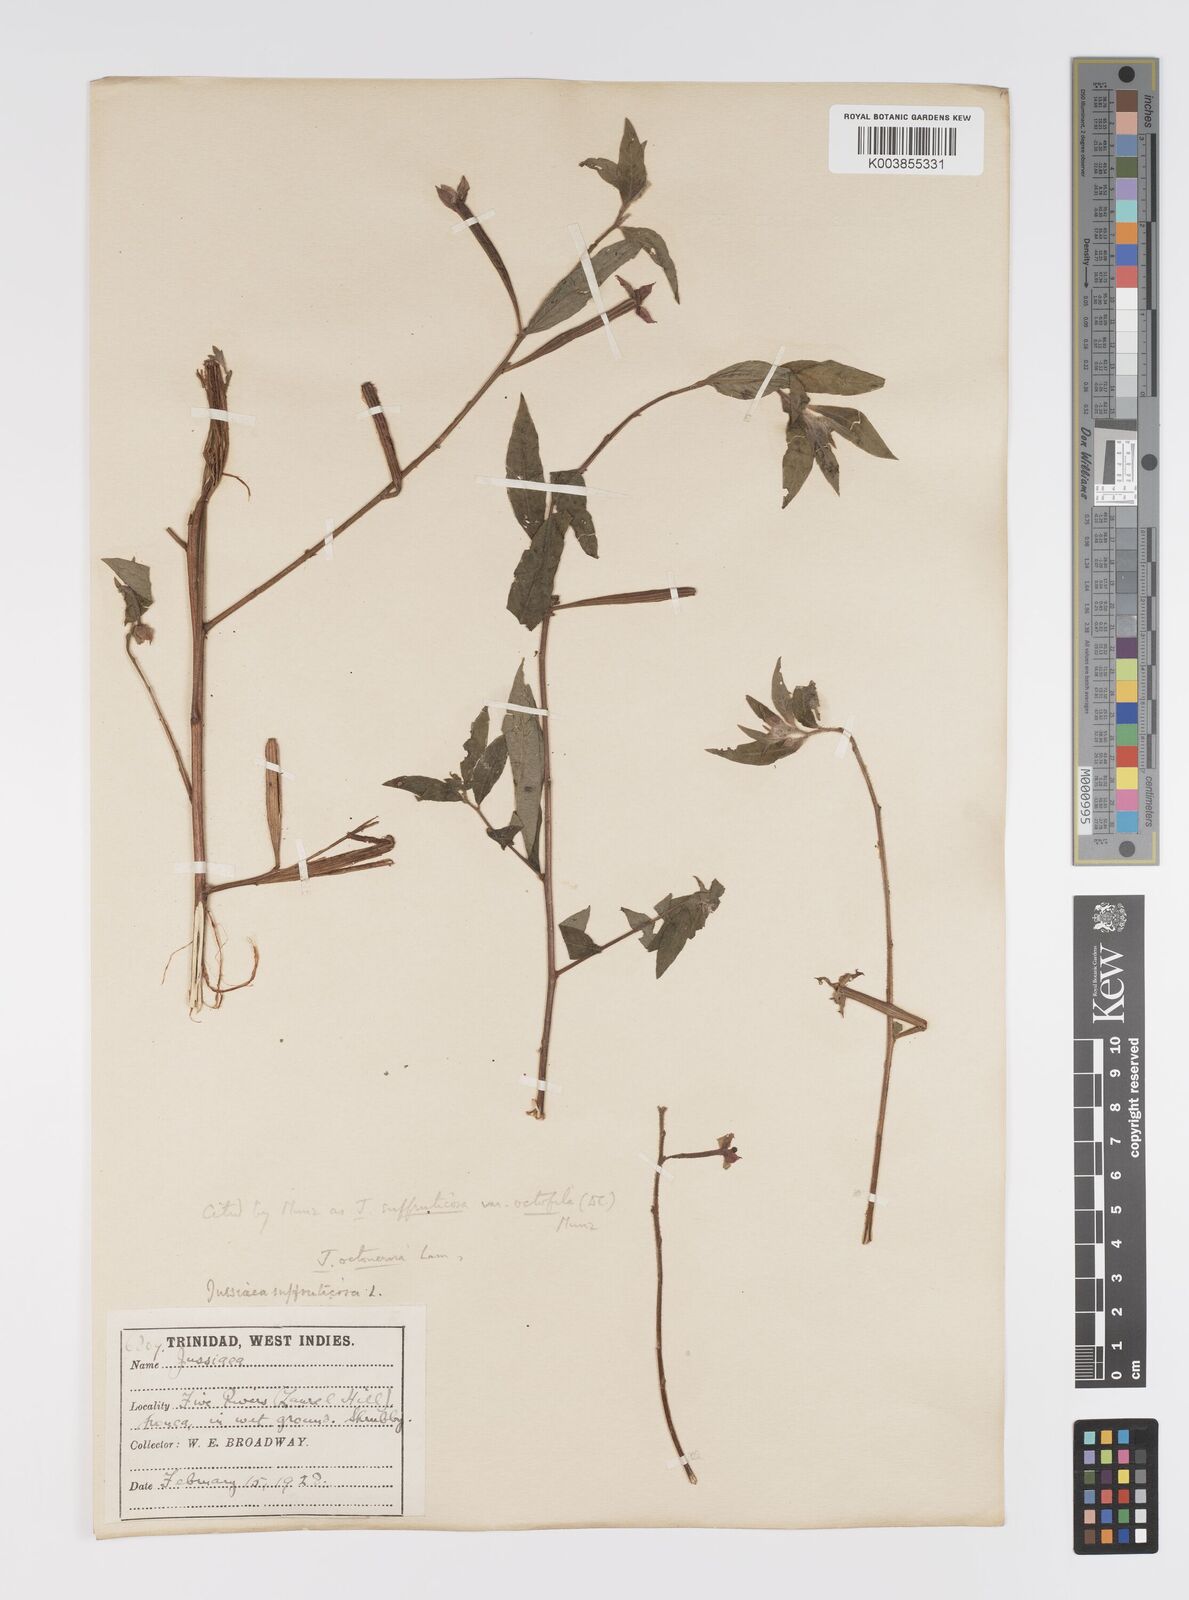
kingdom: Plantae
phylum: Tracheophyta
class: Magnoliopsida
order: Myrtales
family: Onagraceae
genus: Ludwigia
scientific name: Ludwigia
